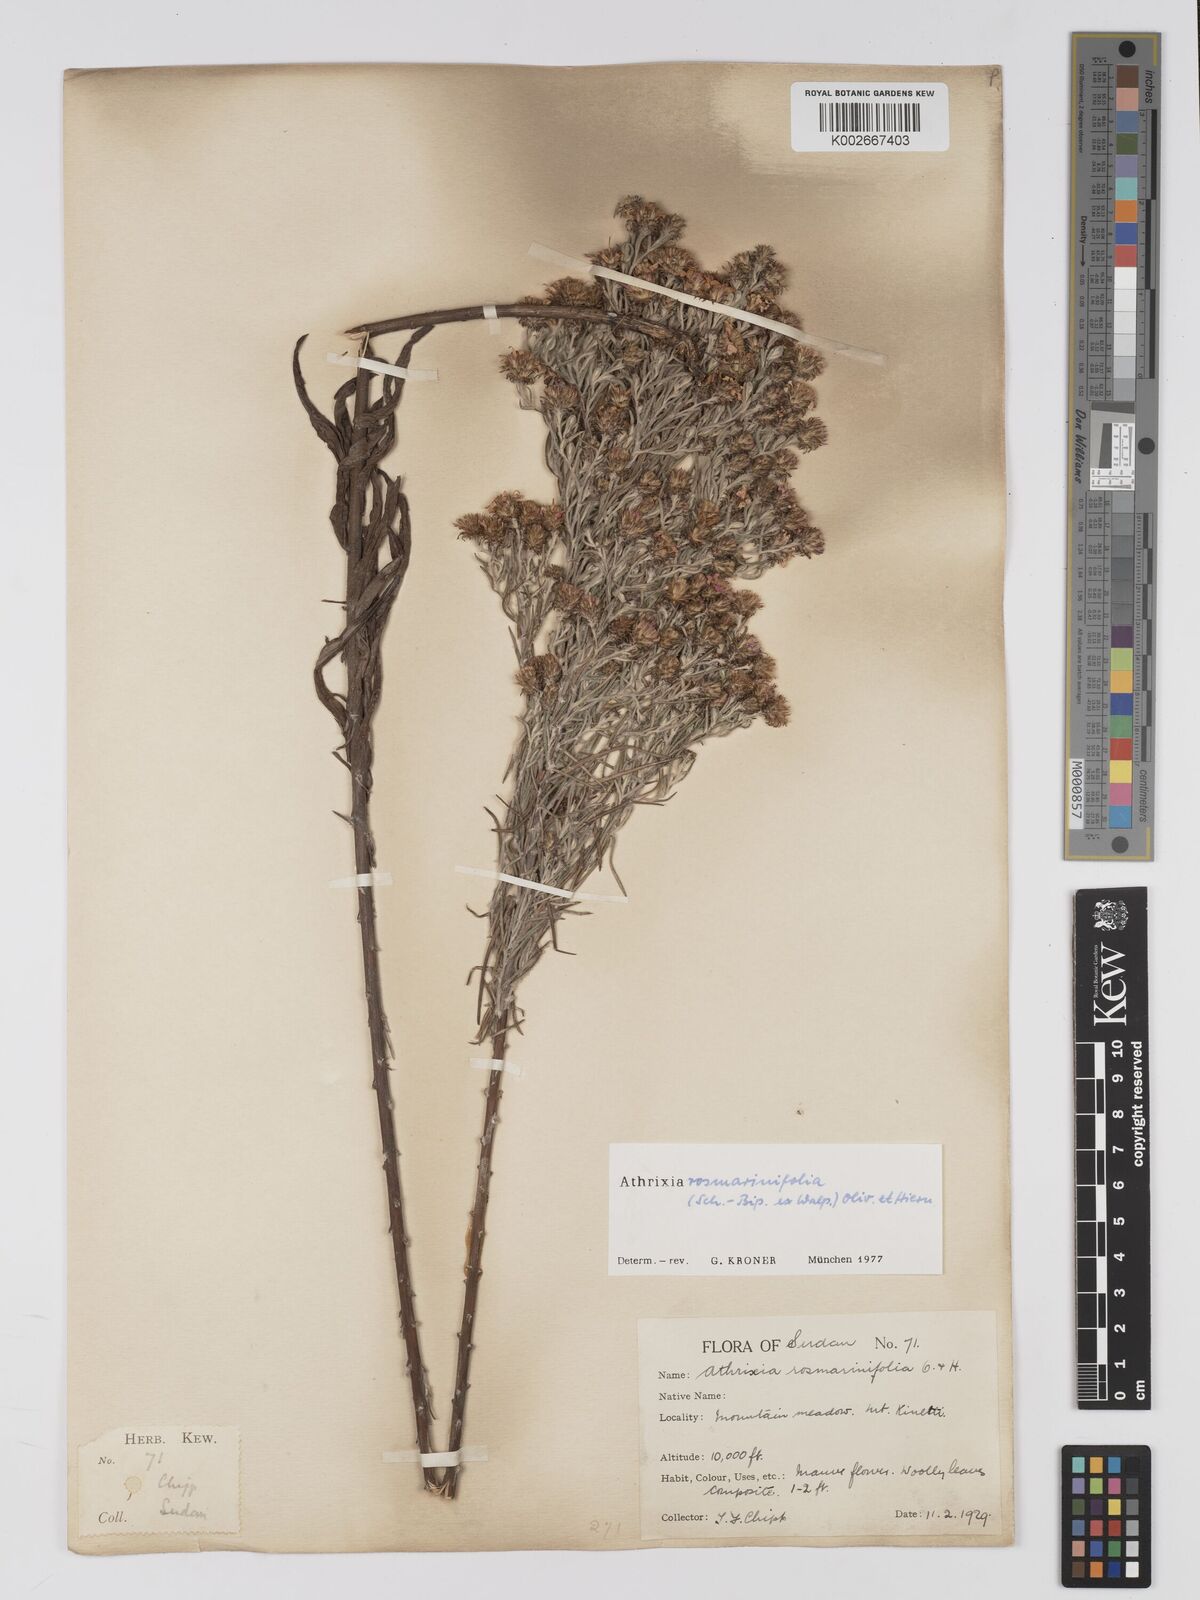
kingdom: Plantae
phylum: Tracheophyta
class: Magnoliopsida
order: Asterales
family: Asteraceae
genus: Athrixia
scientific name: Athrixia rosmarinifolia
